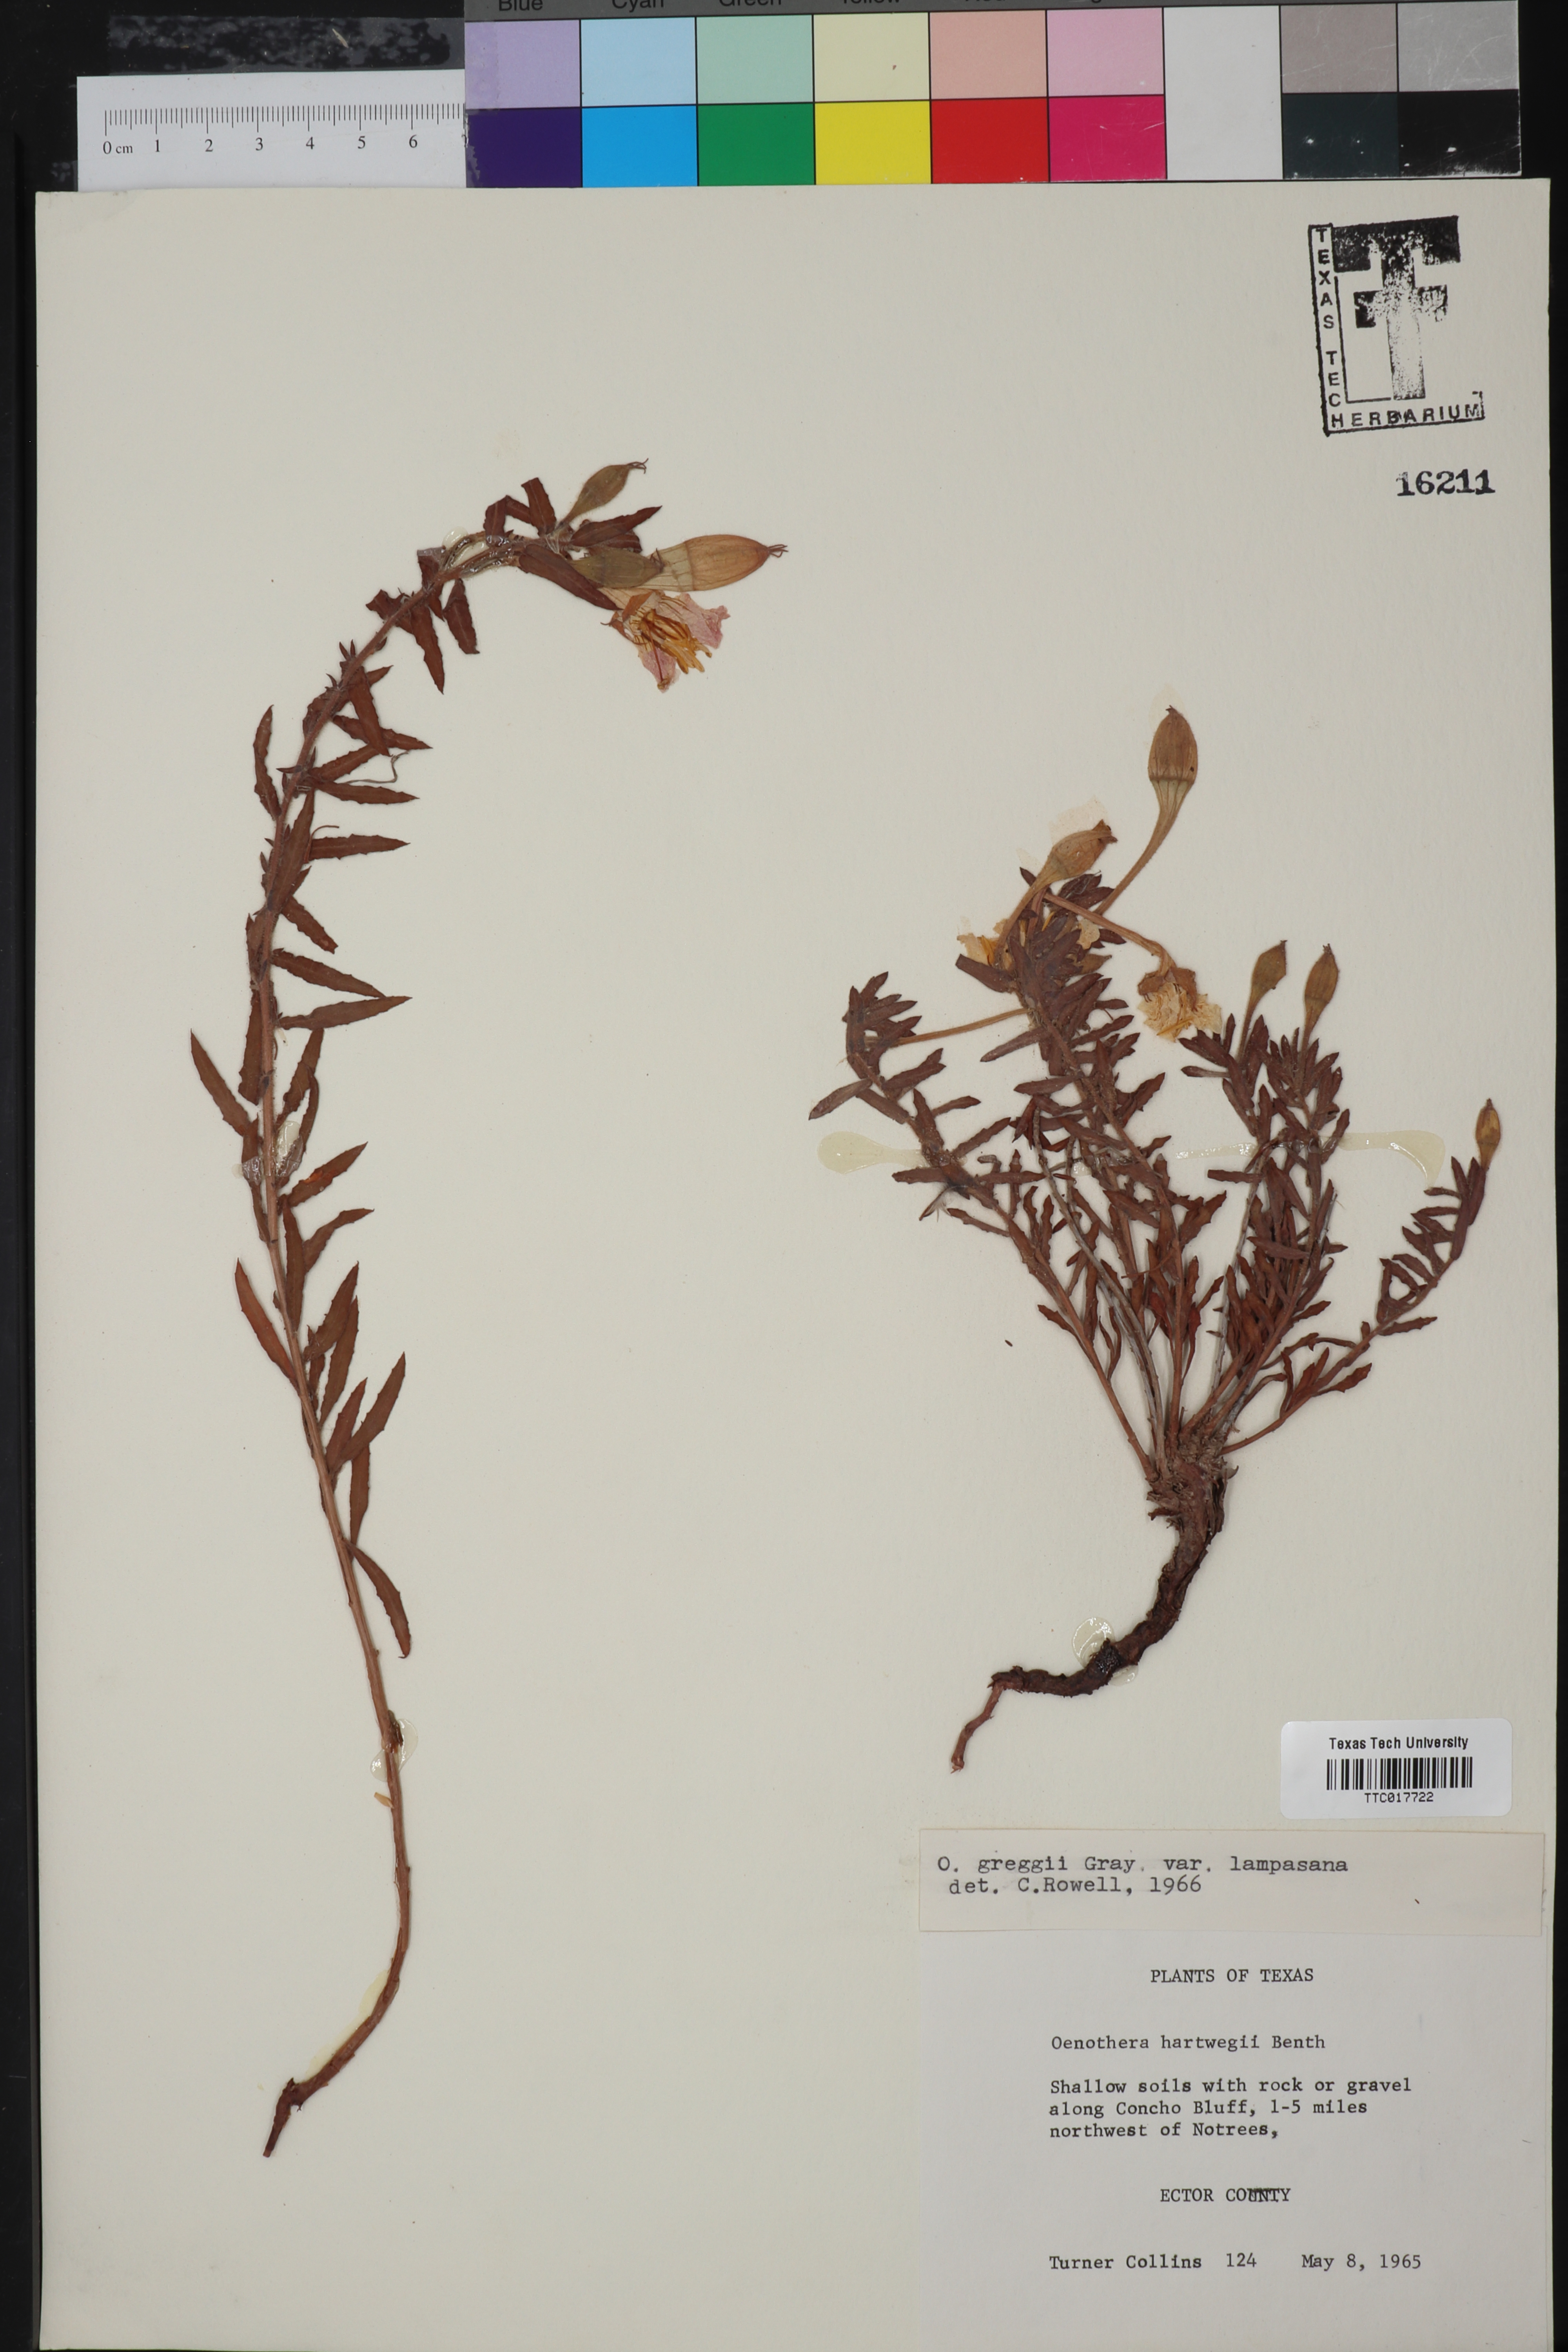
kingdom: Plantae
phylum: Tracheophyta
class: Magnoliopsida
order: Myrtales
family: Onagraceae
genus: Oenothera
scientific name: Oenothera hartwegii
